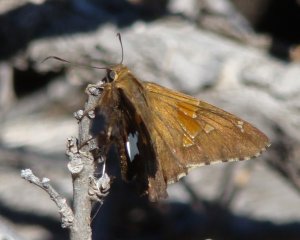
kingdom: Animalia
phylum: Arthropoda
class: Insecta
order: Lepidoptera
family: Hesperiidae
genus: Epargyreus
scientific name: Epargyreus clarus
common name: Silver-spotted Skipper
